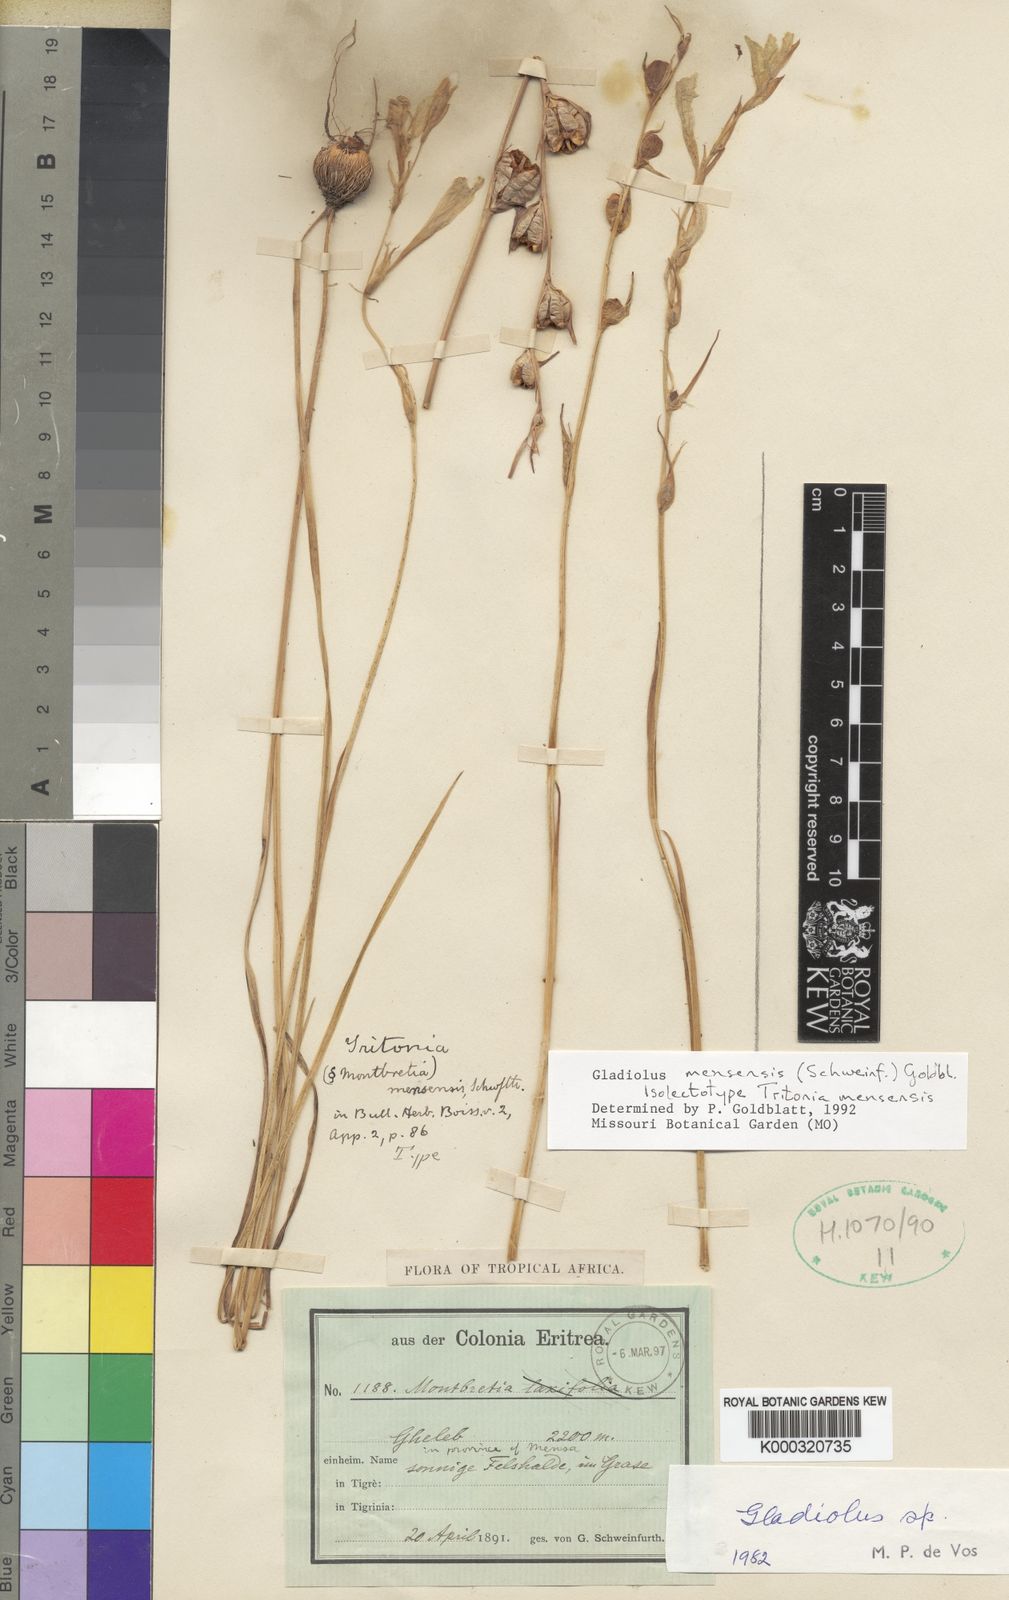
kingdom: Plantae
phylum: Tracheophyta
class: Liliopsida
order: Asparagales
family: Iridaceae
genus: Gladiolus
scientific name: Gladiolus mensensis
